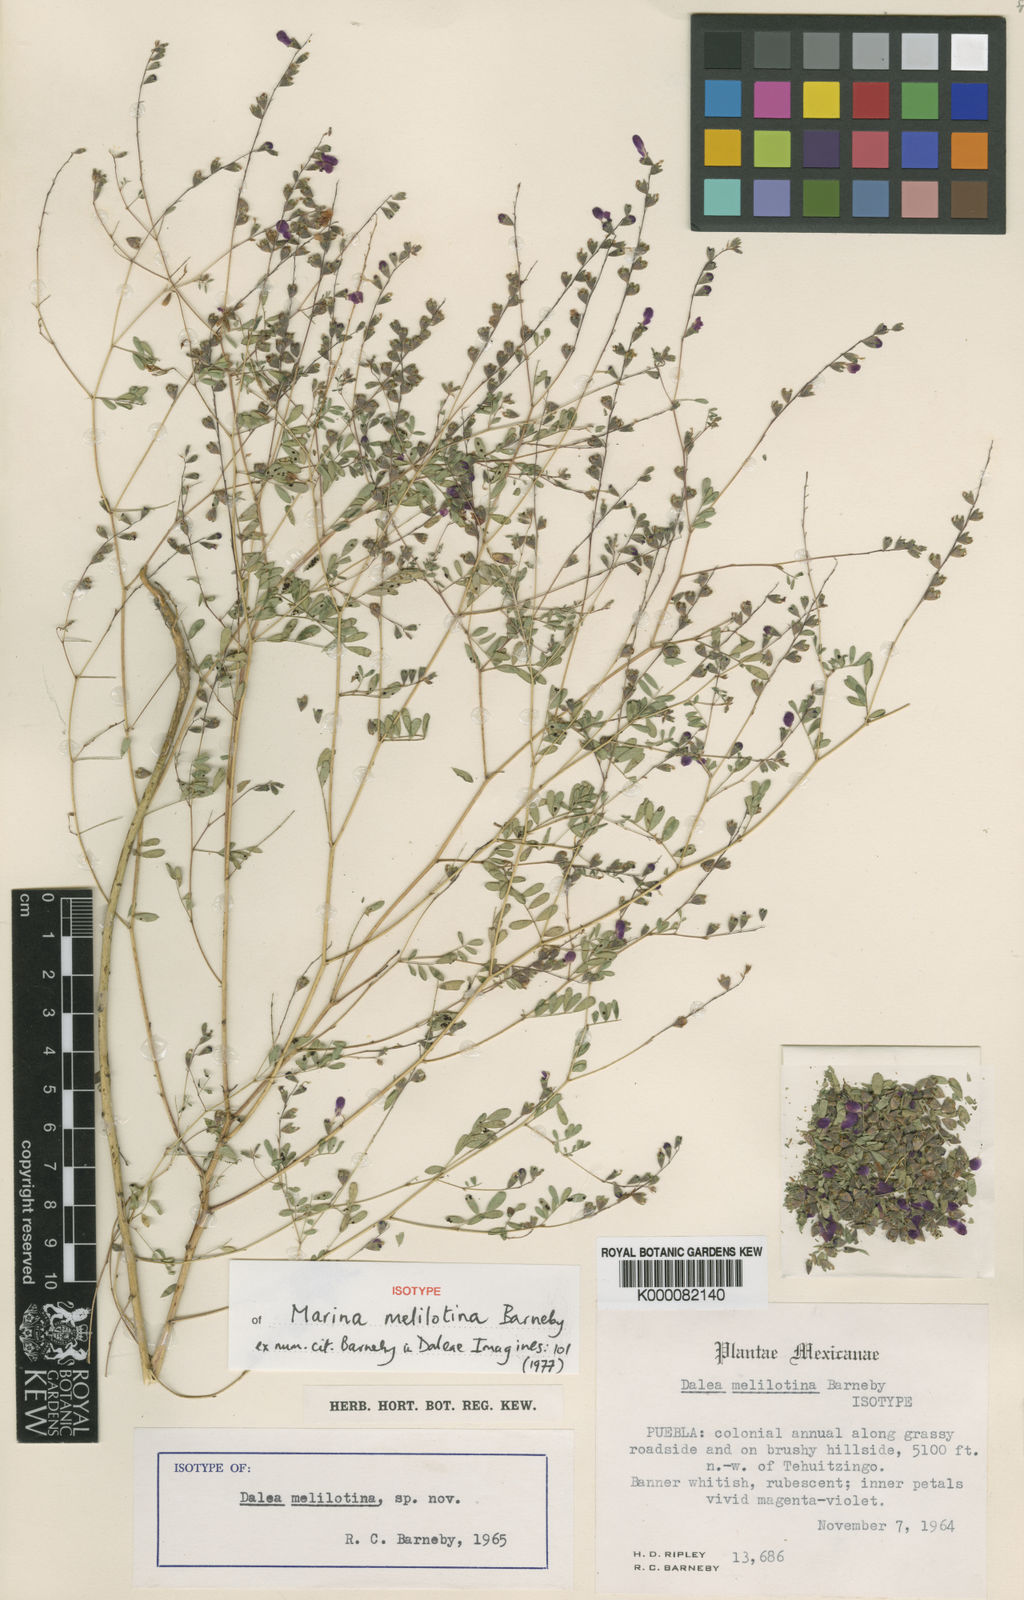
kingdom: Plantae
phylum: Tracheophyta
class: Magnoliopsida
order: Fabales
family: Fabaceae
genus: Marina
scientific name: Marina melilotina
